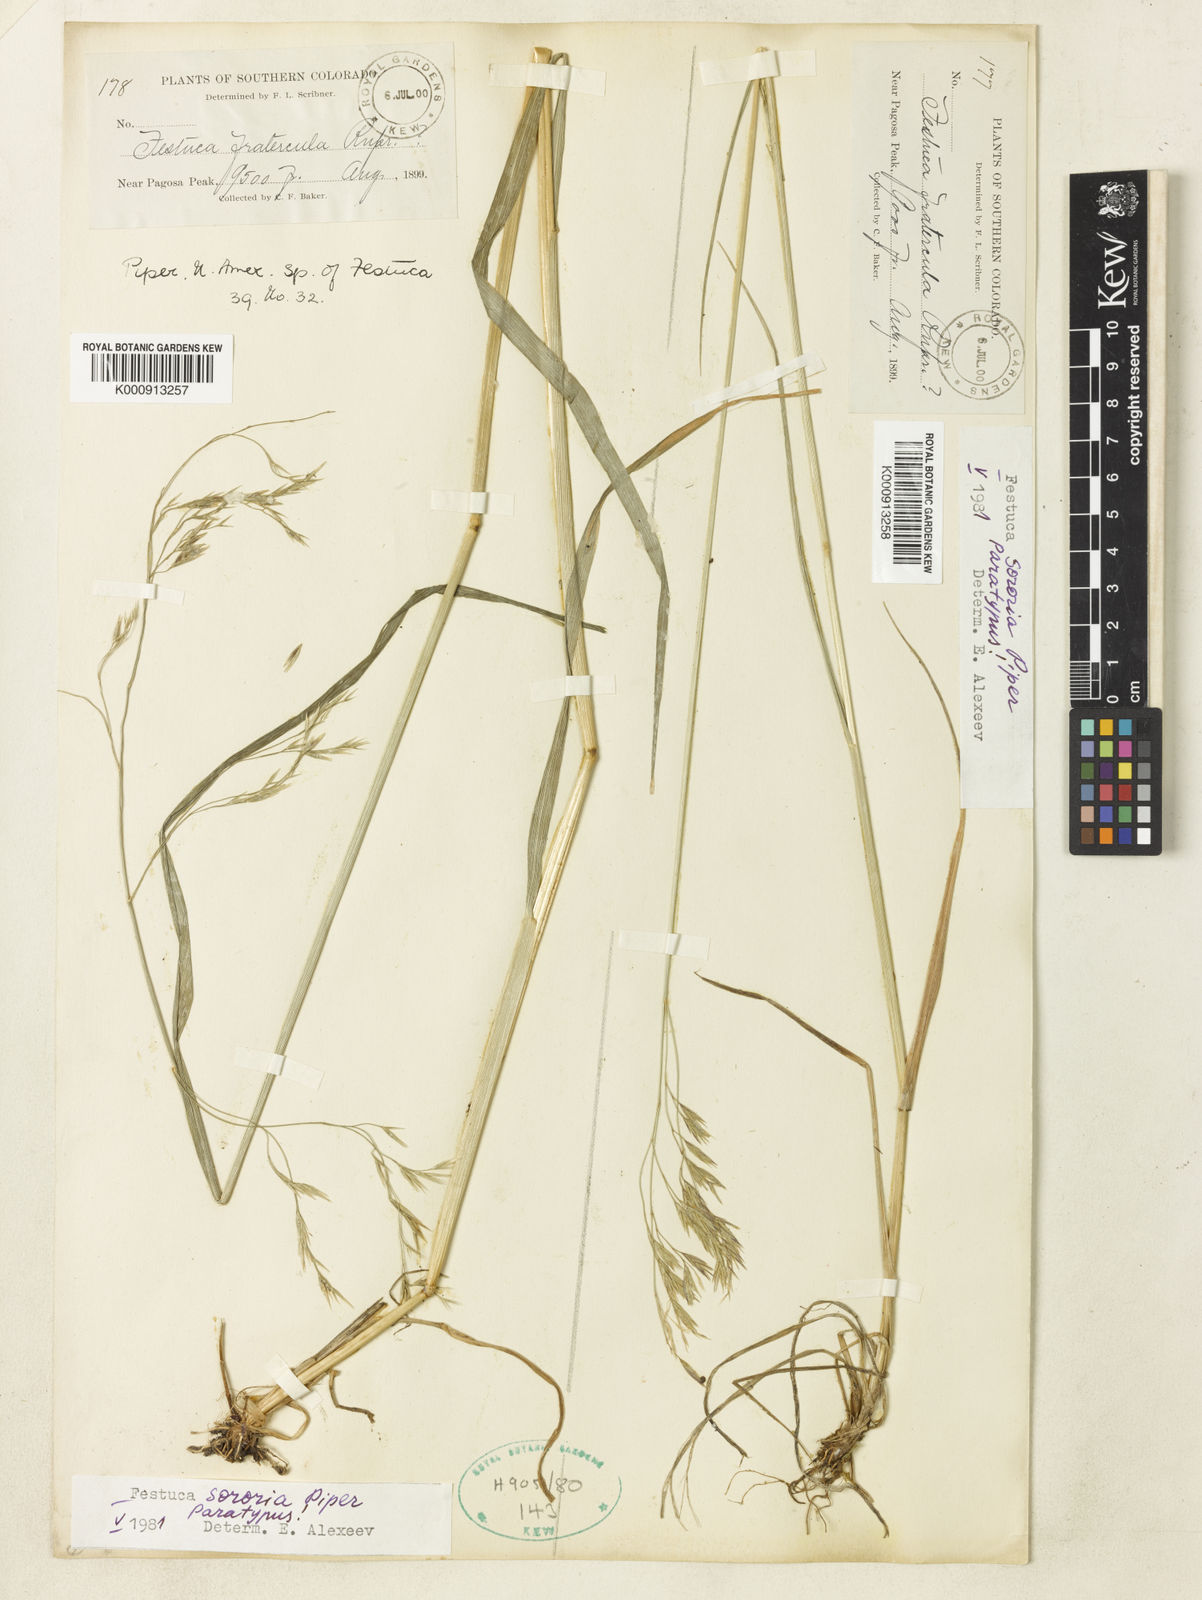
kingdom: Plantae
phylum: Tracheophyta
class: Liliopsida
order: Poales
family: Poaceae
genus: Festuca
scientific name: Festuca sororia
